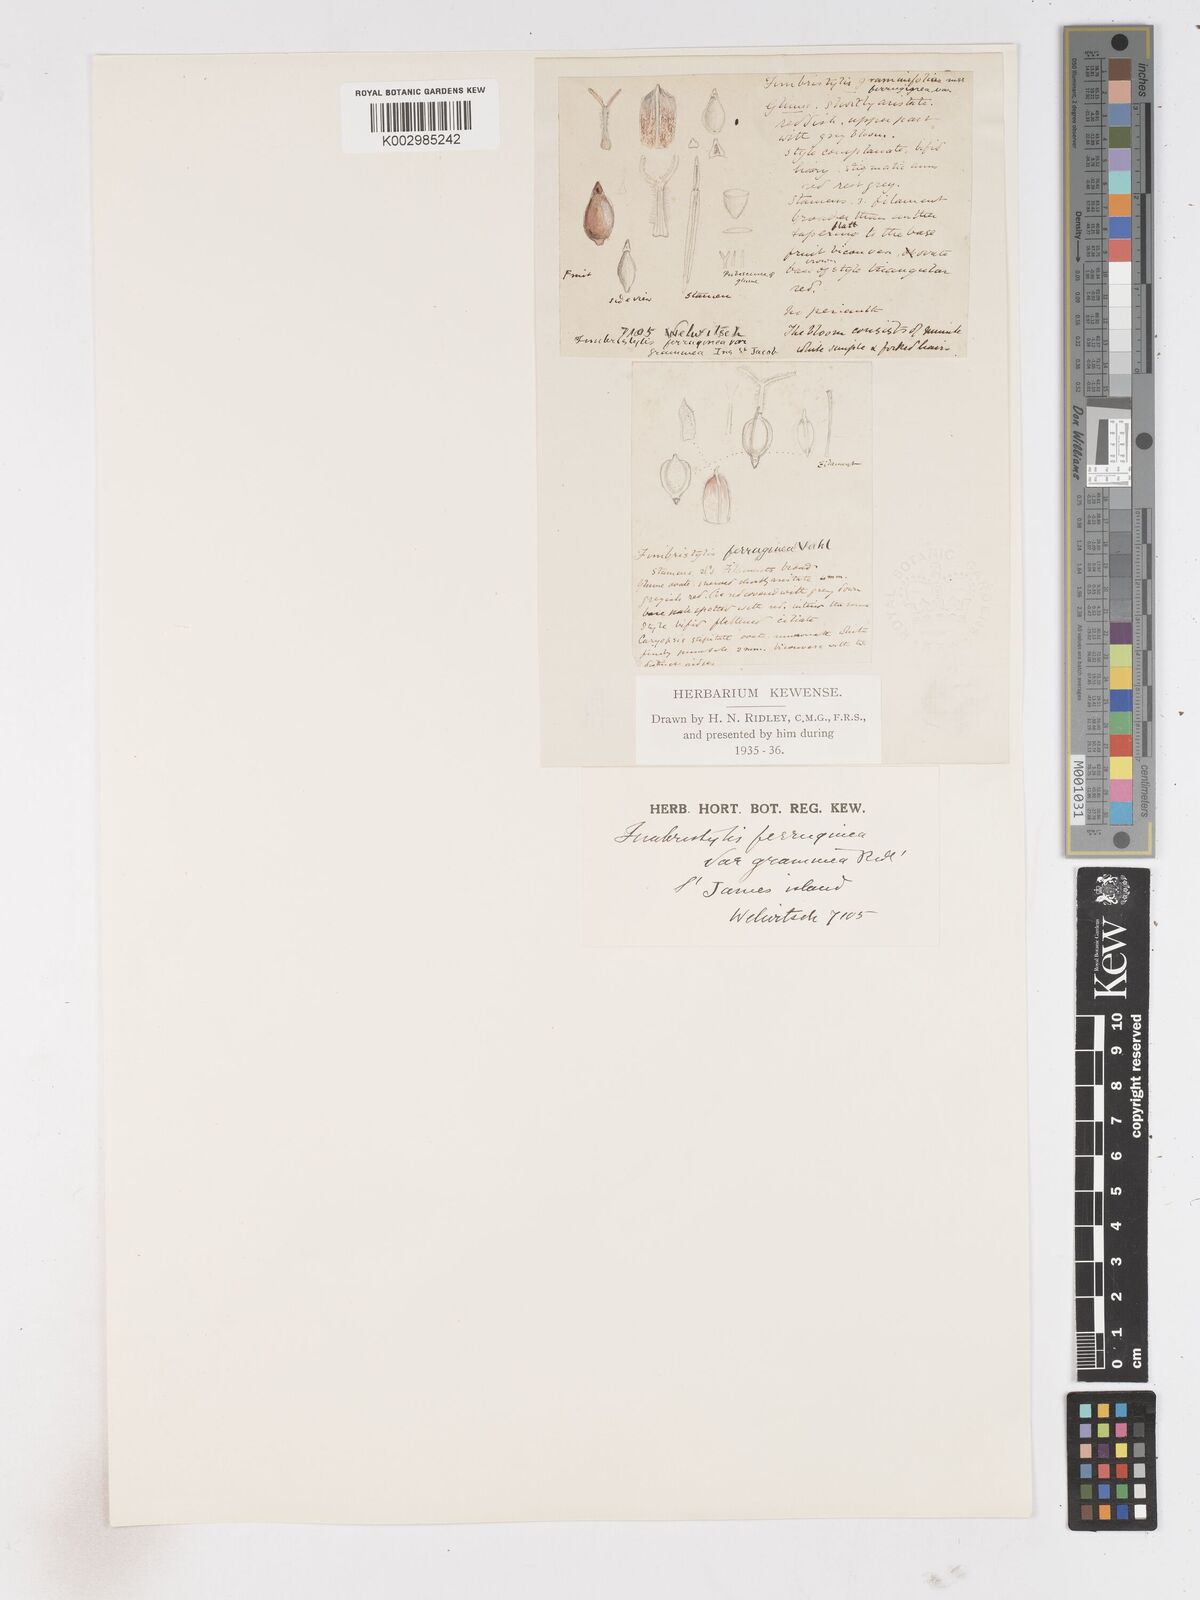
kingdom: Plantae
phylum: Tracheophyta
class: Liliopsida
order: Poales
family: Cyperaceae
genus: Fimbristylis
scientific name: Fimbristylis
